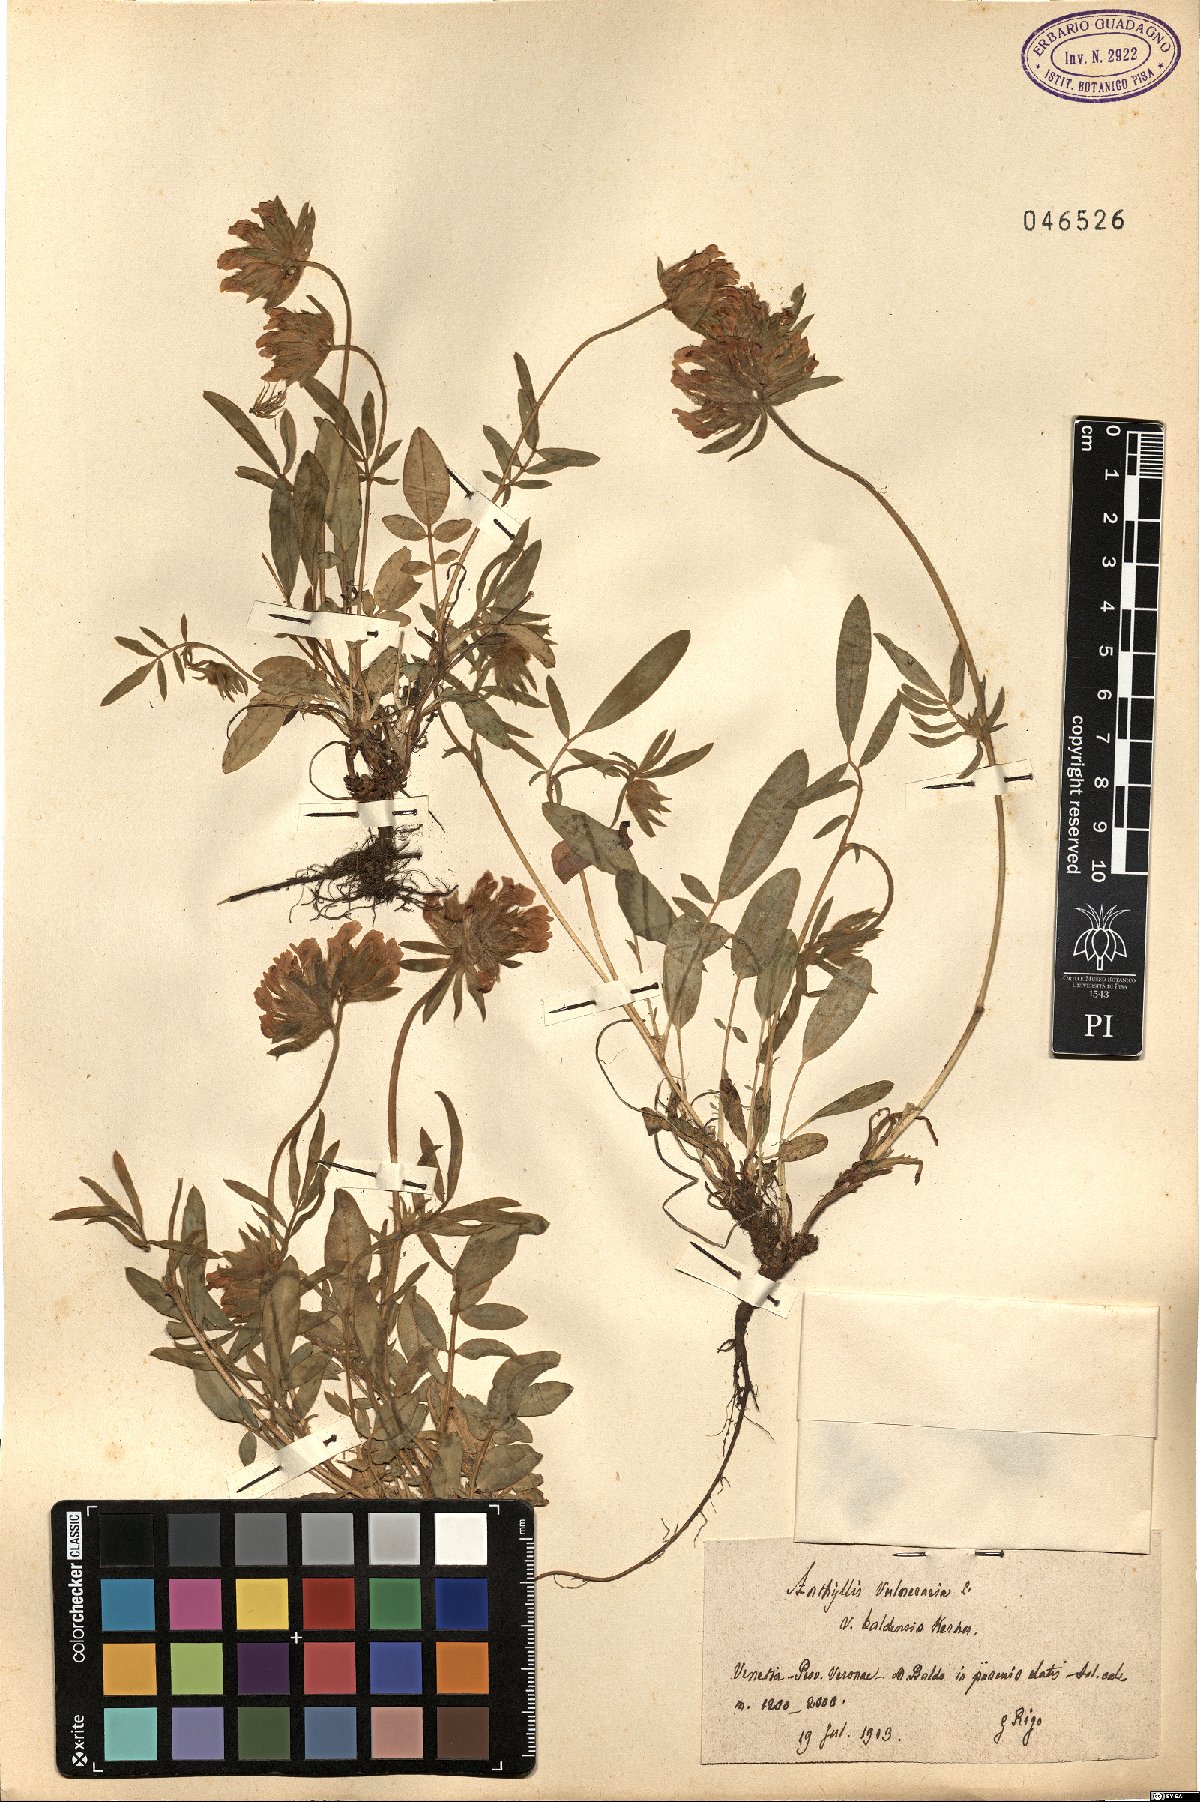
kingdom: Plantae
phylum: Tracheophyta
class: Magnoliopsida
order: Fabales
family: Fabaceae
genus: Anthyllis
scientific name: Anthyllis vulneraria
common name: Kidney vetch
